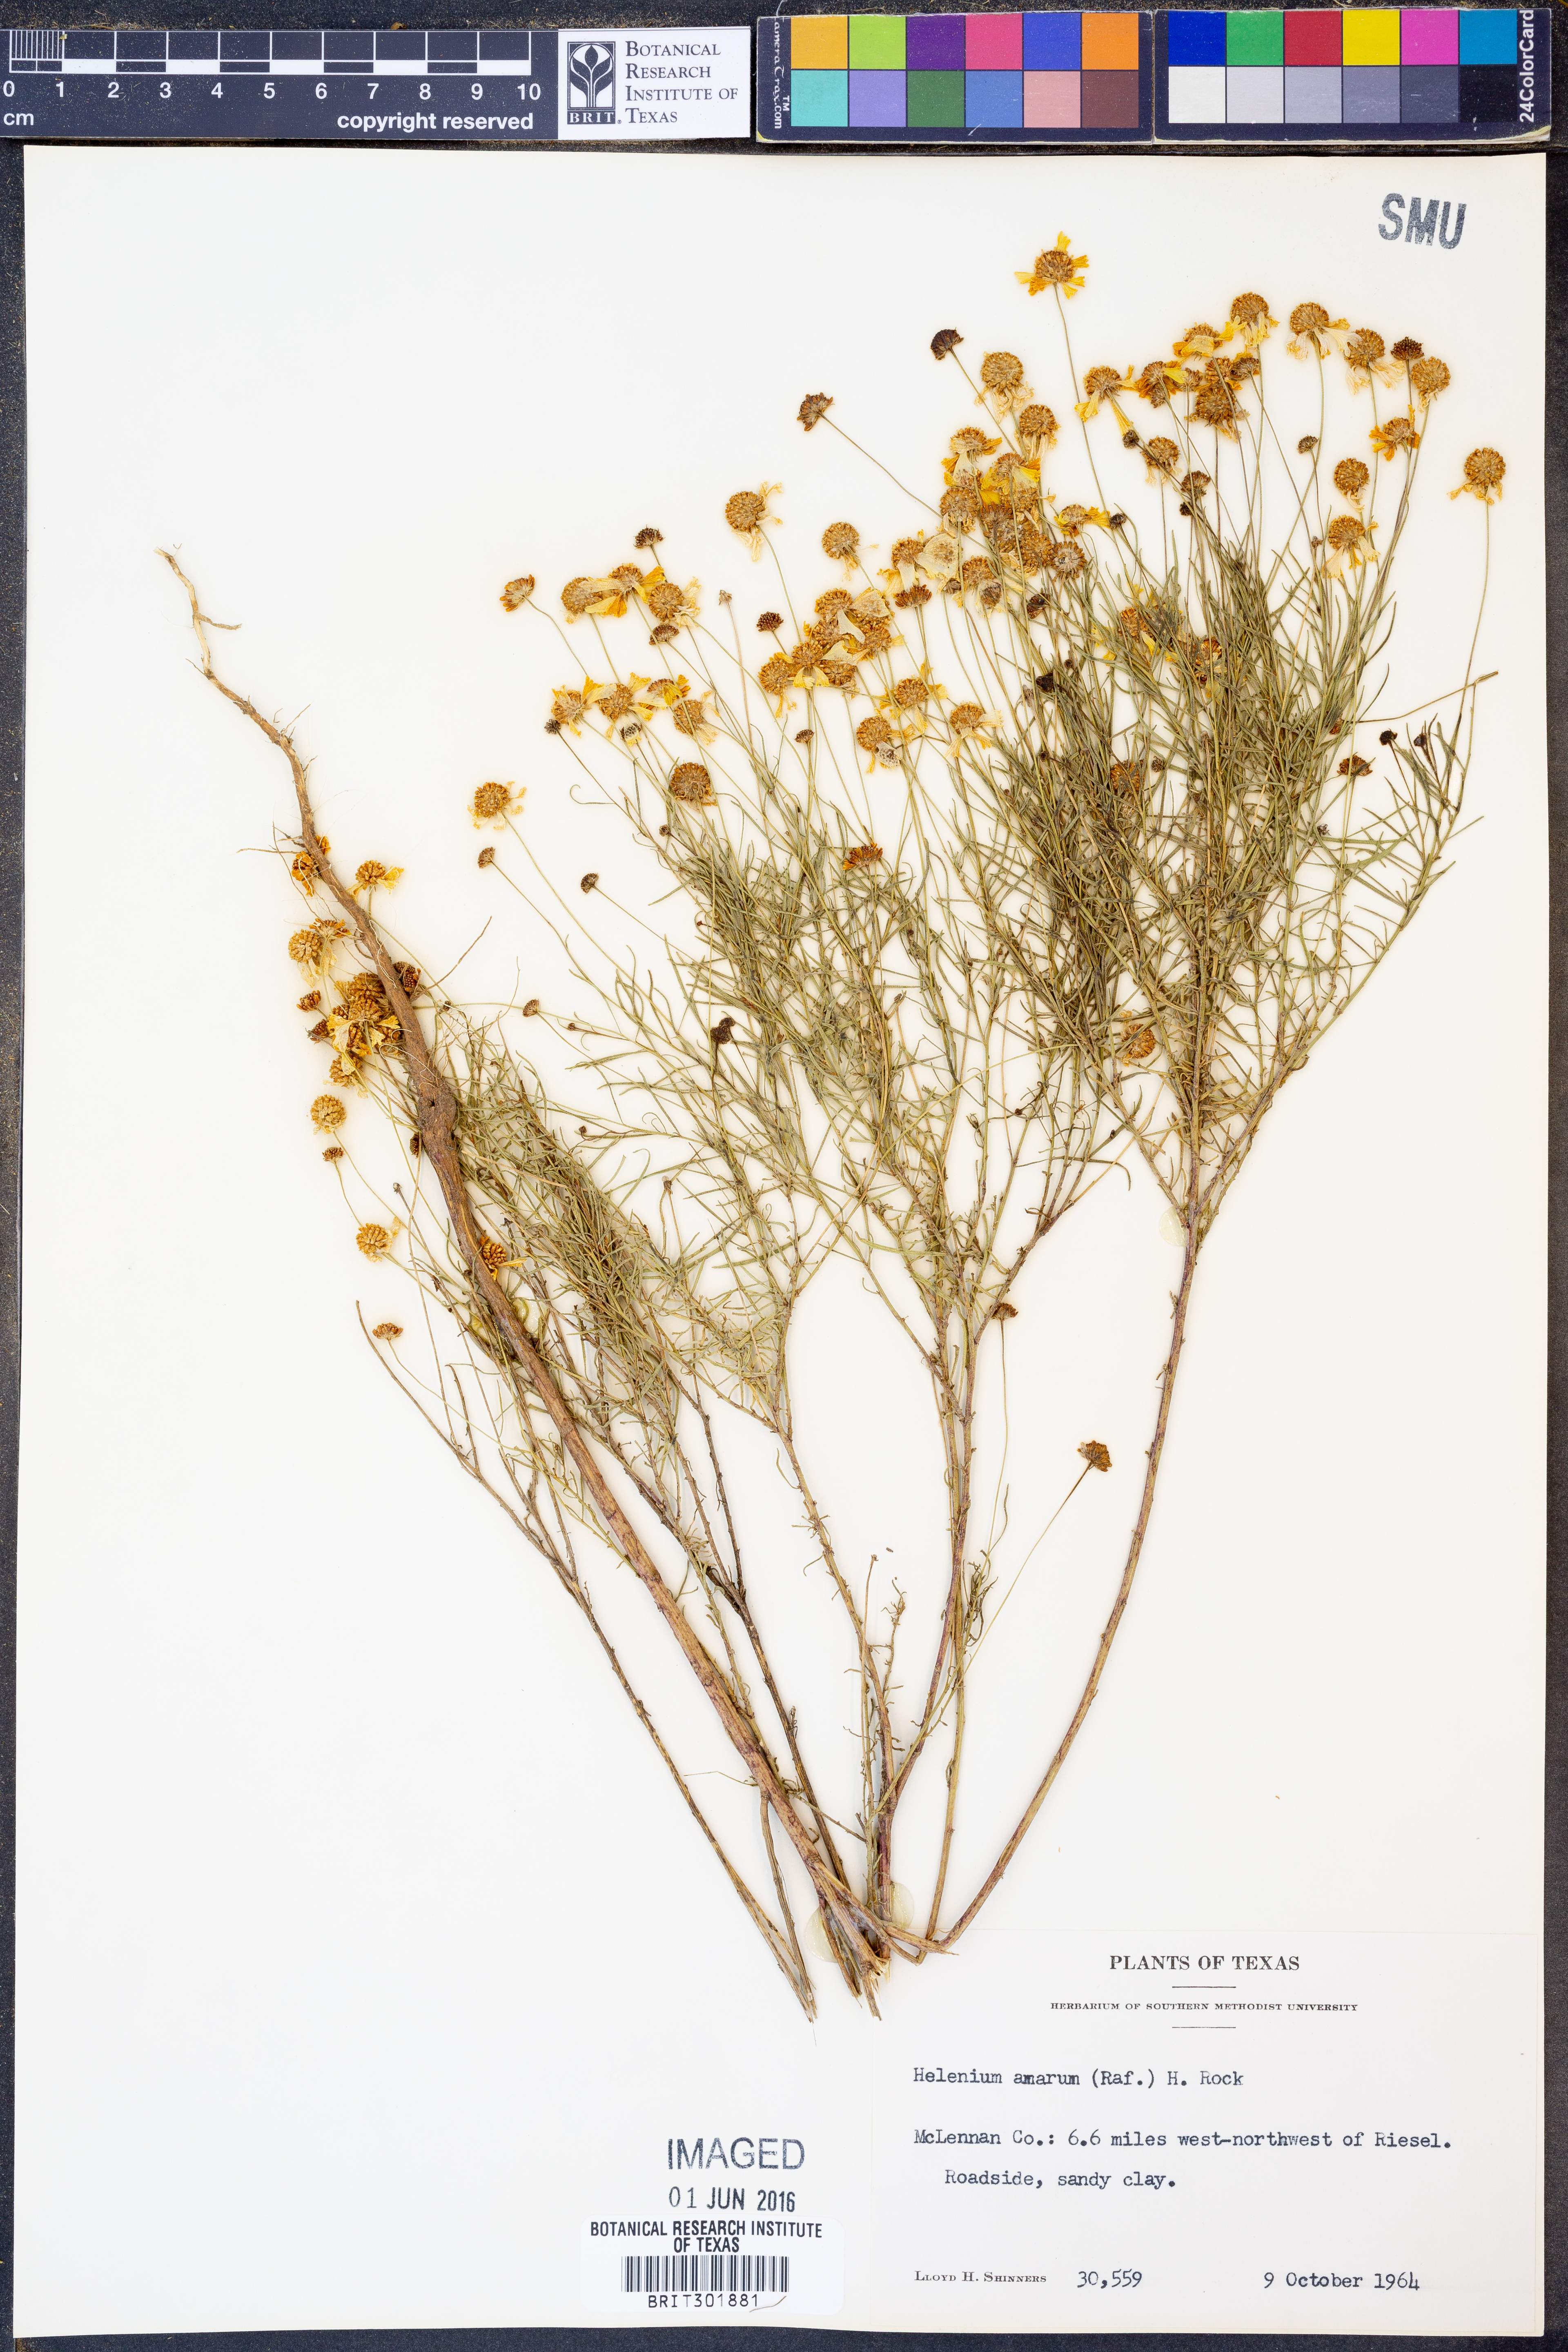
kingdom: Plantae
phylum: Tracheophyta
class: Magnoliopsida
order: Asterales
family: Asteraceae
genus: Helenium
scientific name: Helenium amarum
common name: Bitter sneezeweed
